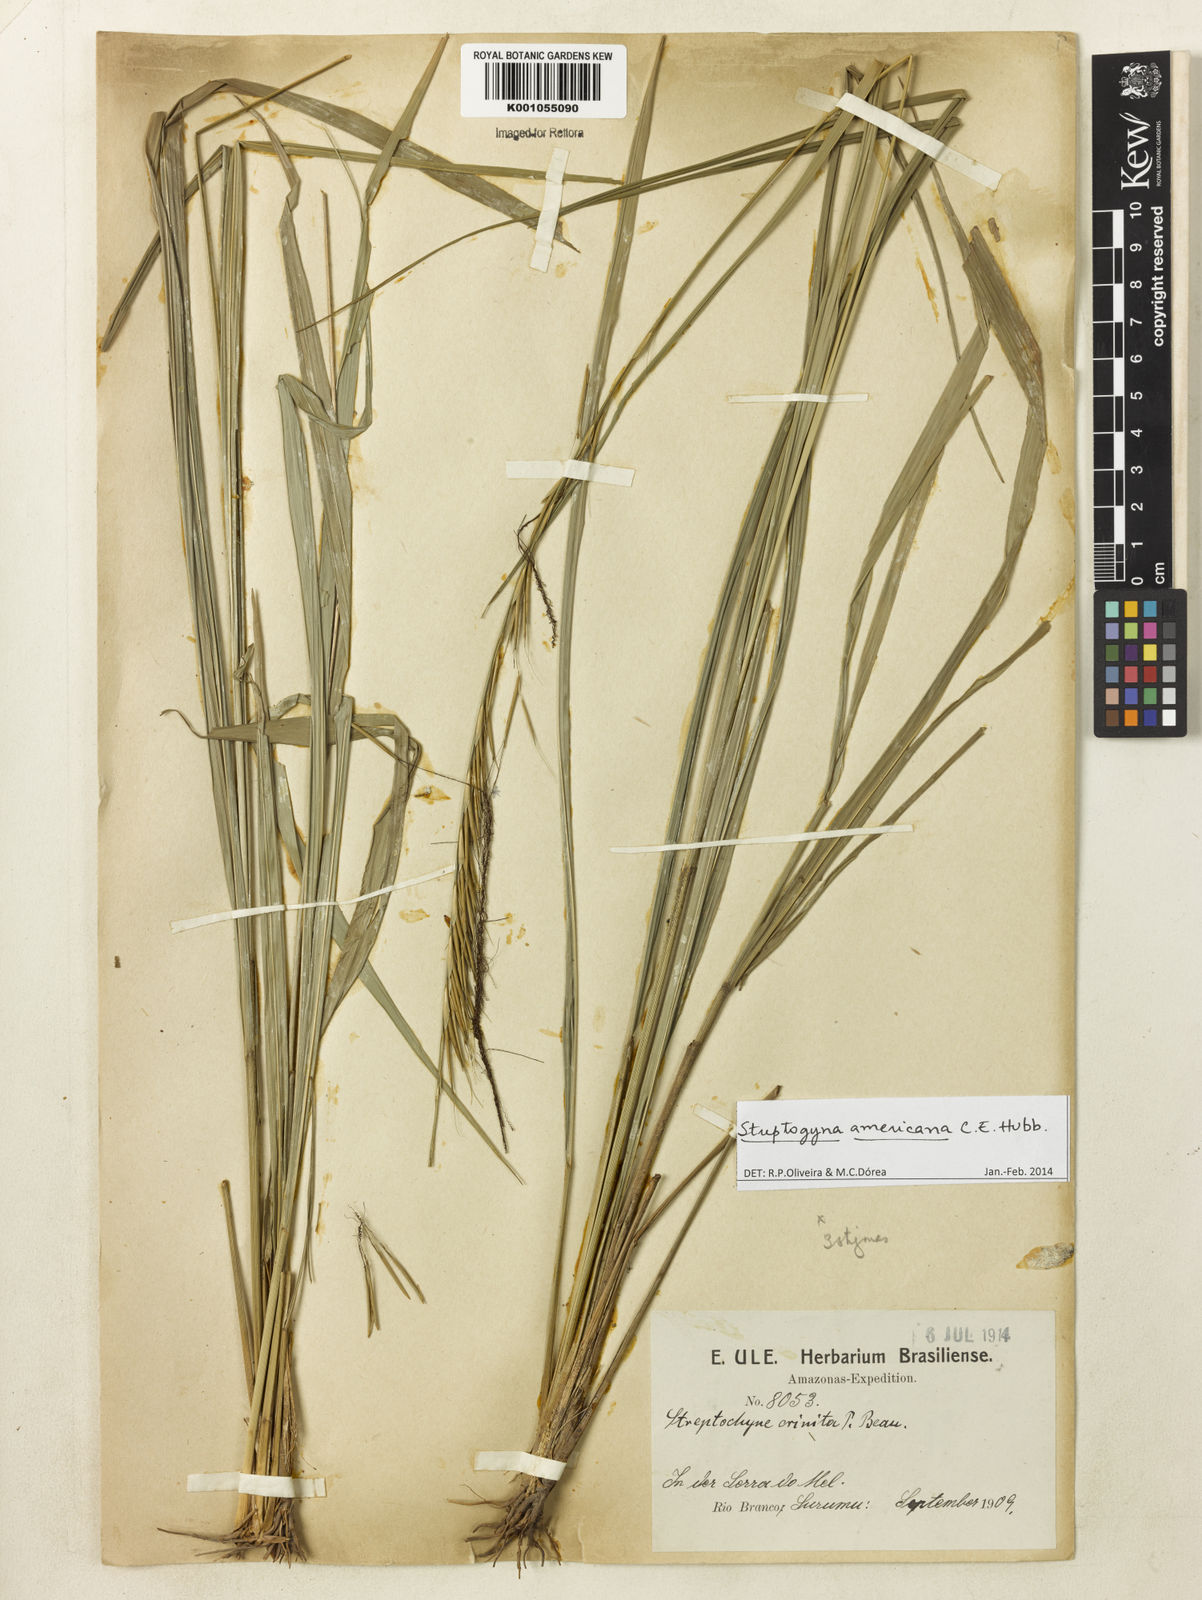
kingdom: Plantae
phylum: Tracheophyta
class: Liliopsida
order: Poales
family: Poaceae
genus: Streptogyna
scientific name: Streptogyna americana
